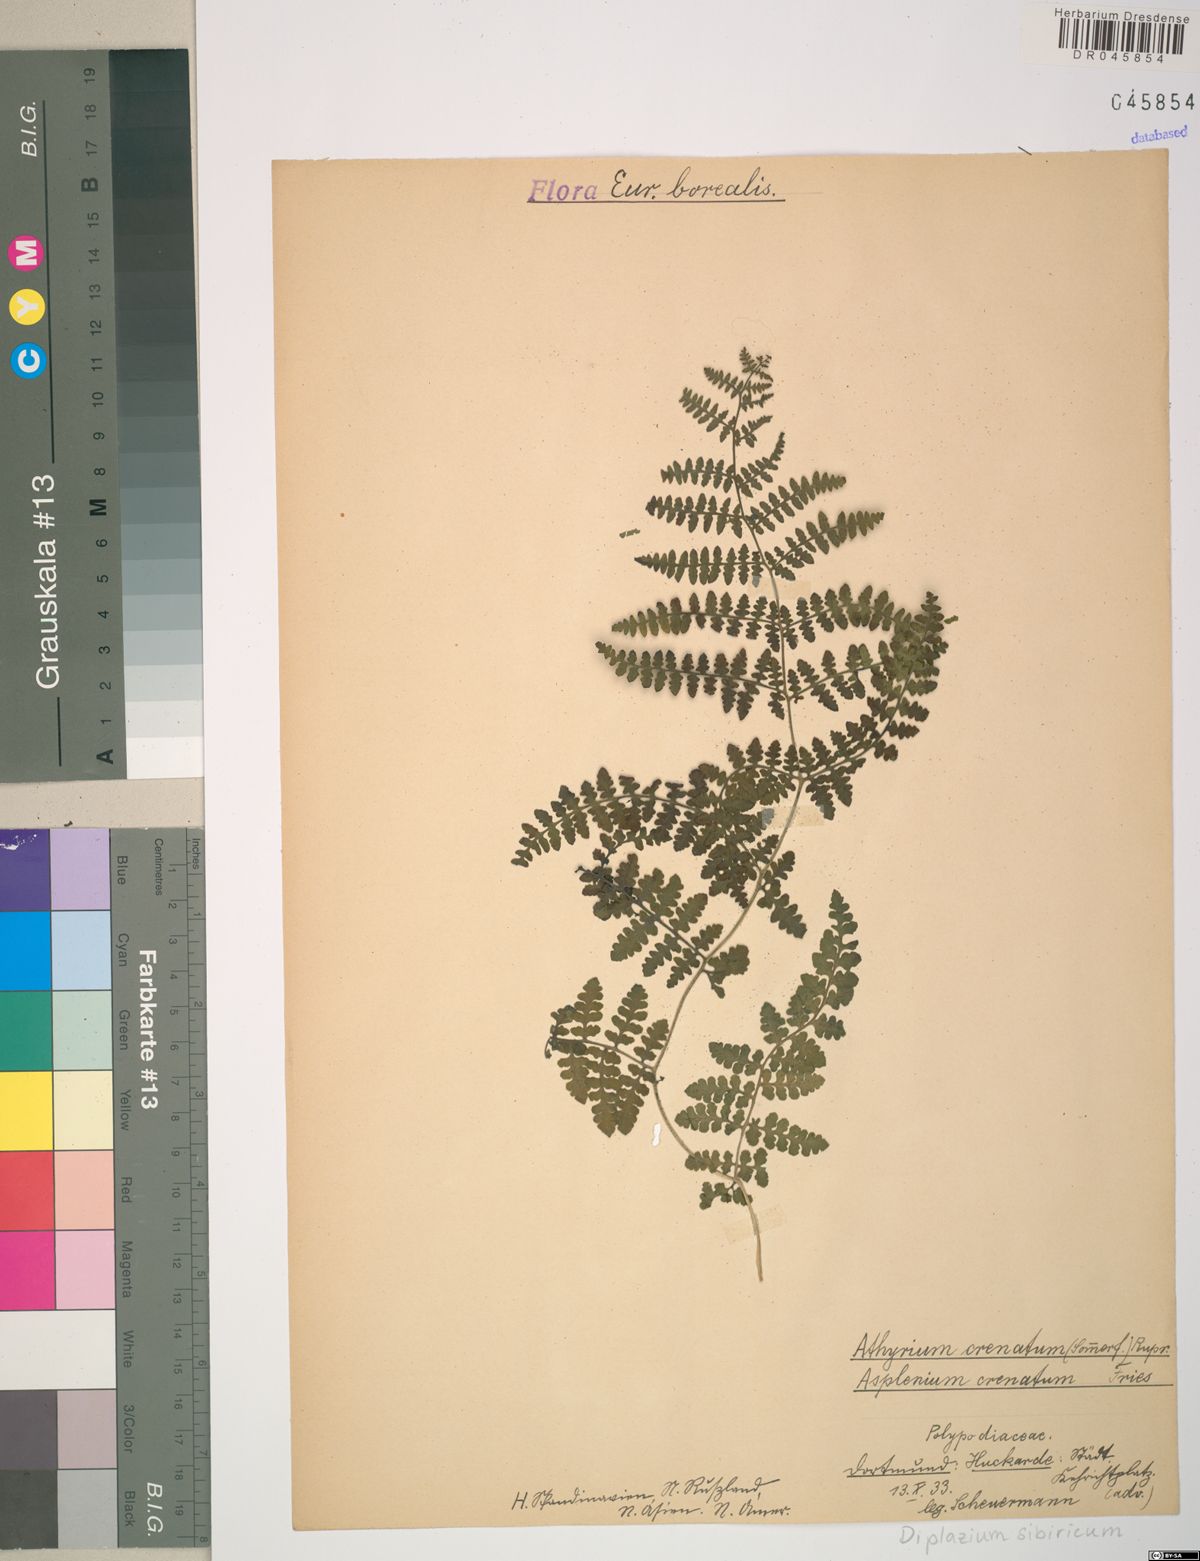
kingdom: Plantae
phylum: Tracheophyta
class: Polypodiopsida
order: Polypodiales
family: Athyriaceae
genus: Diplazium
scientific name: Diplazium sibiricum
